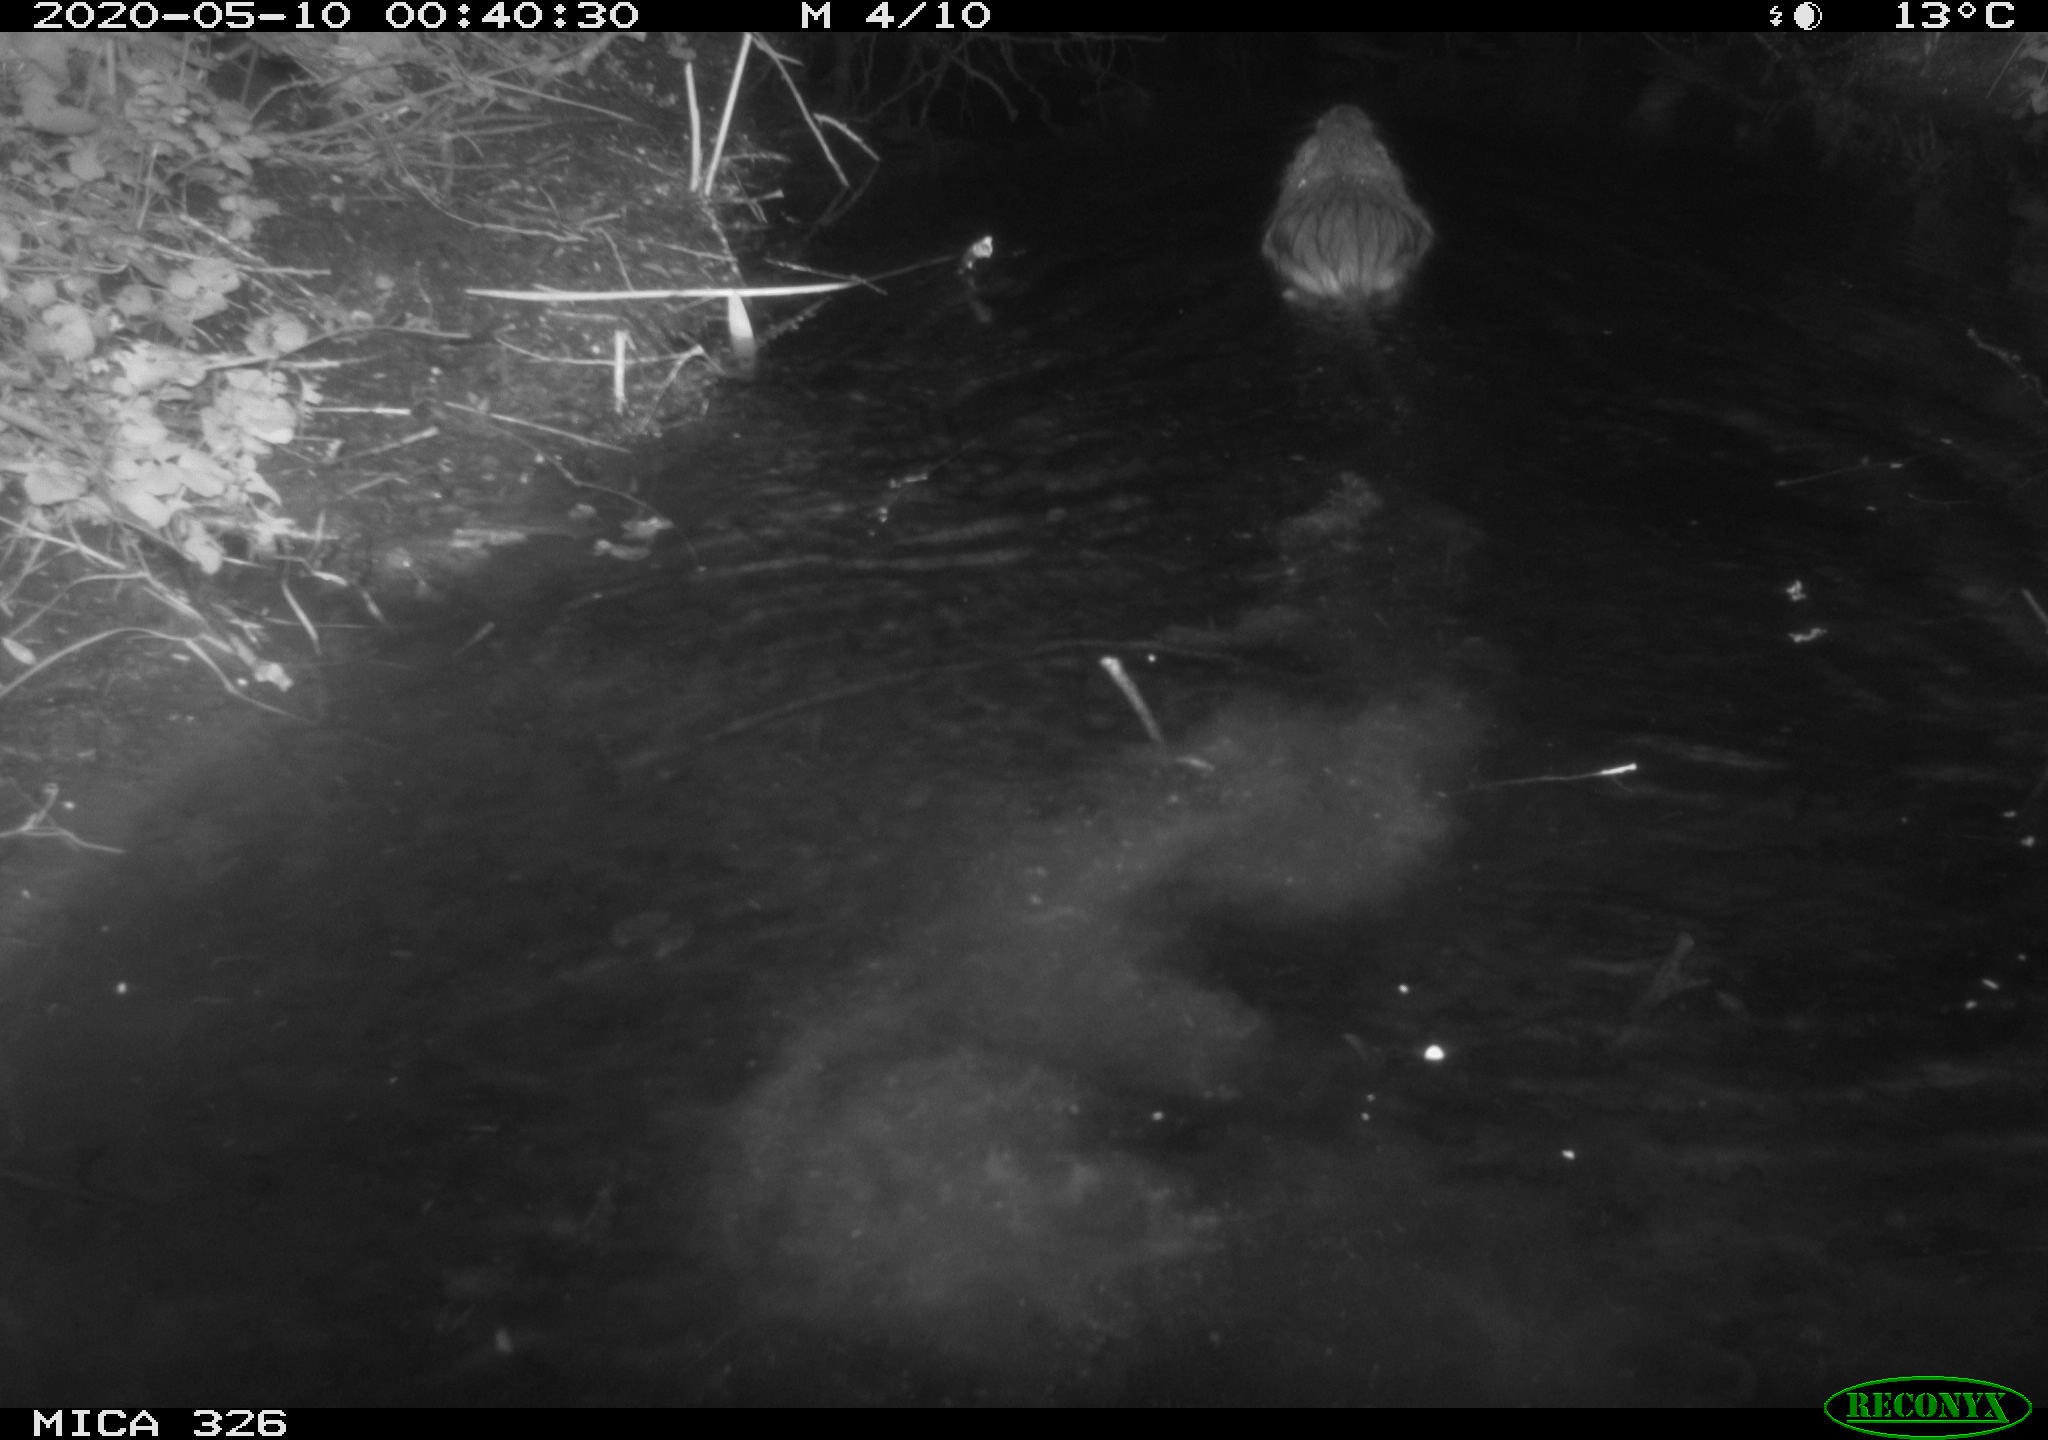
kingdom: Animalia
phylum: Chordata
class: Mammalia
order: Rodentia
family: Myocastoridae
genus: Myocastor
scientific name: Myocastor coypus
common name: Coypu
